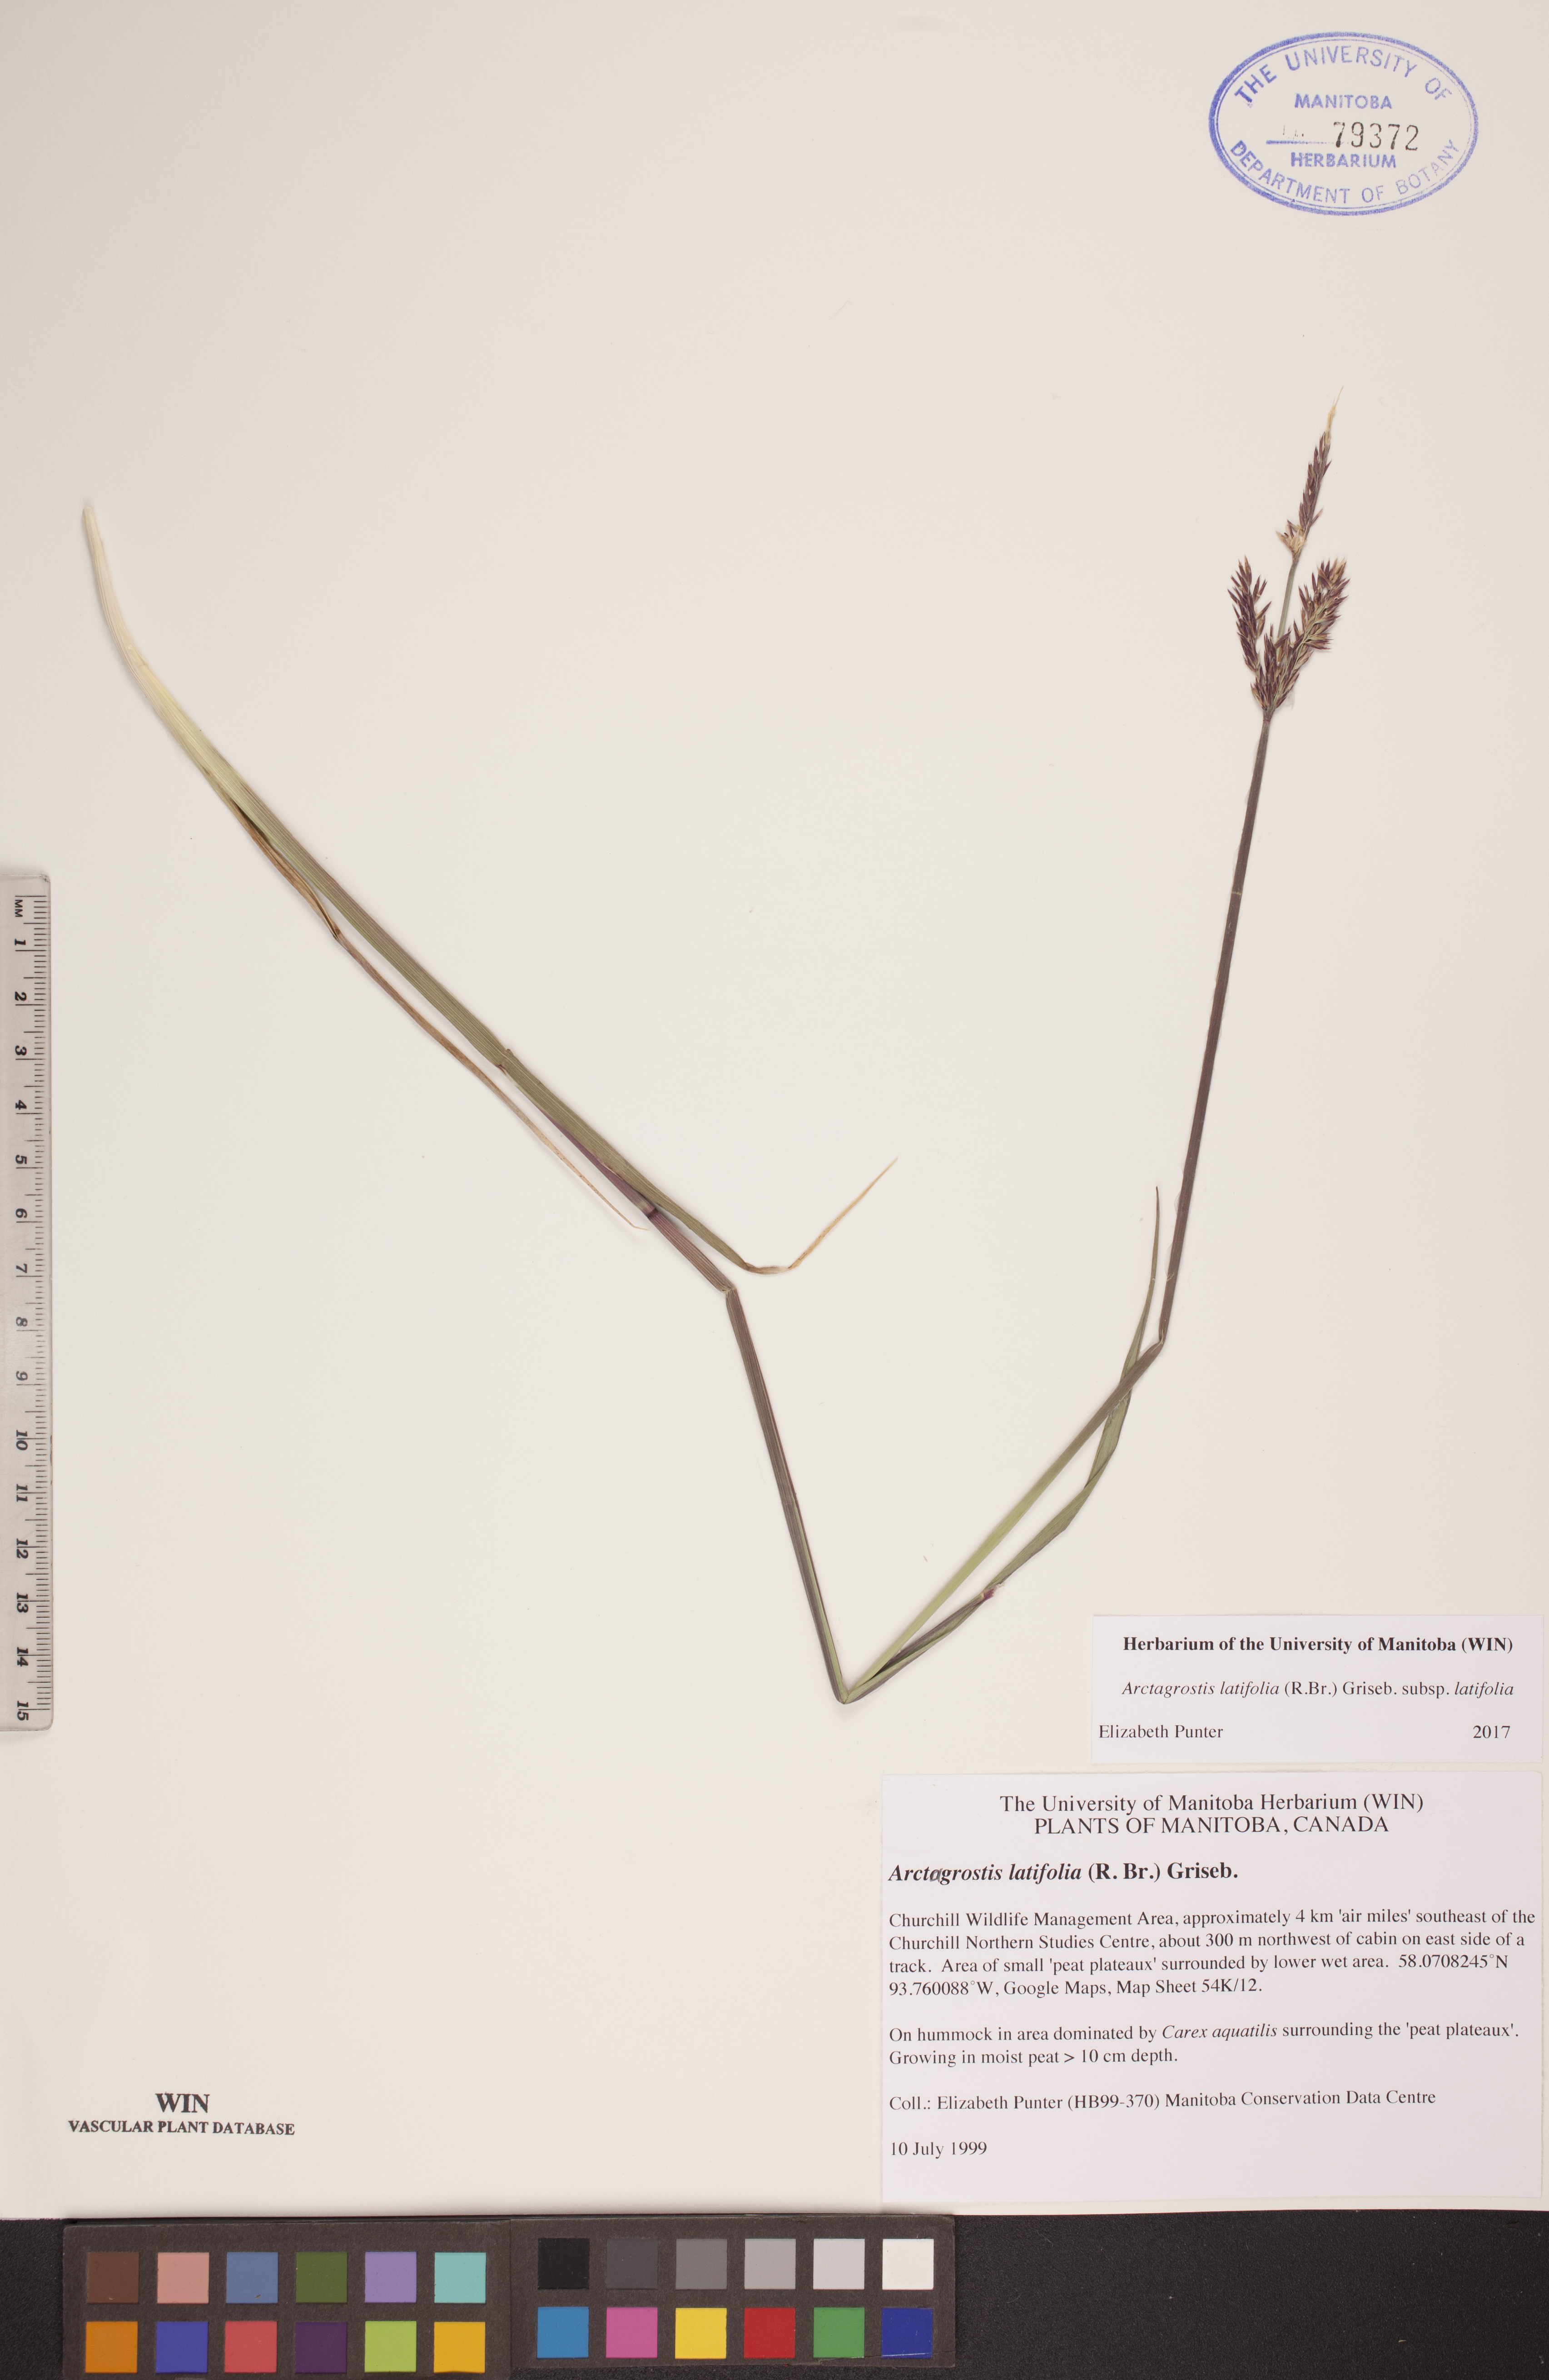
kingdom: Plantae
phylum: Tracheophyta
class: Liliopsida
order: Poales
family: Poaceae
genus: Arctagrostis
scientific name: Arctagrostis latifolia
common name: Arctic grass
